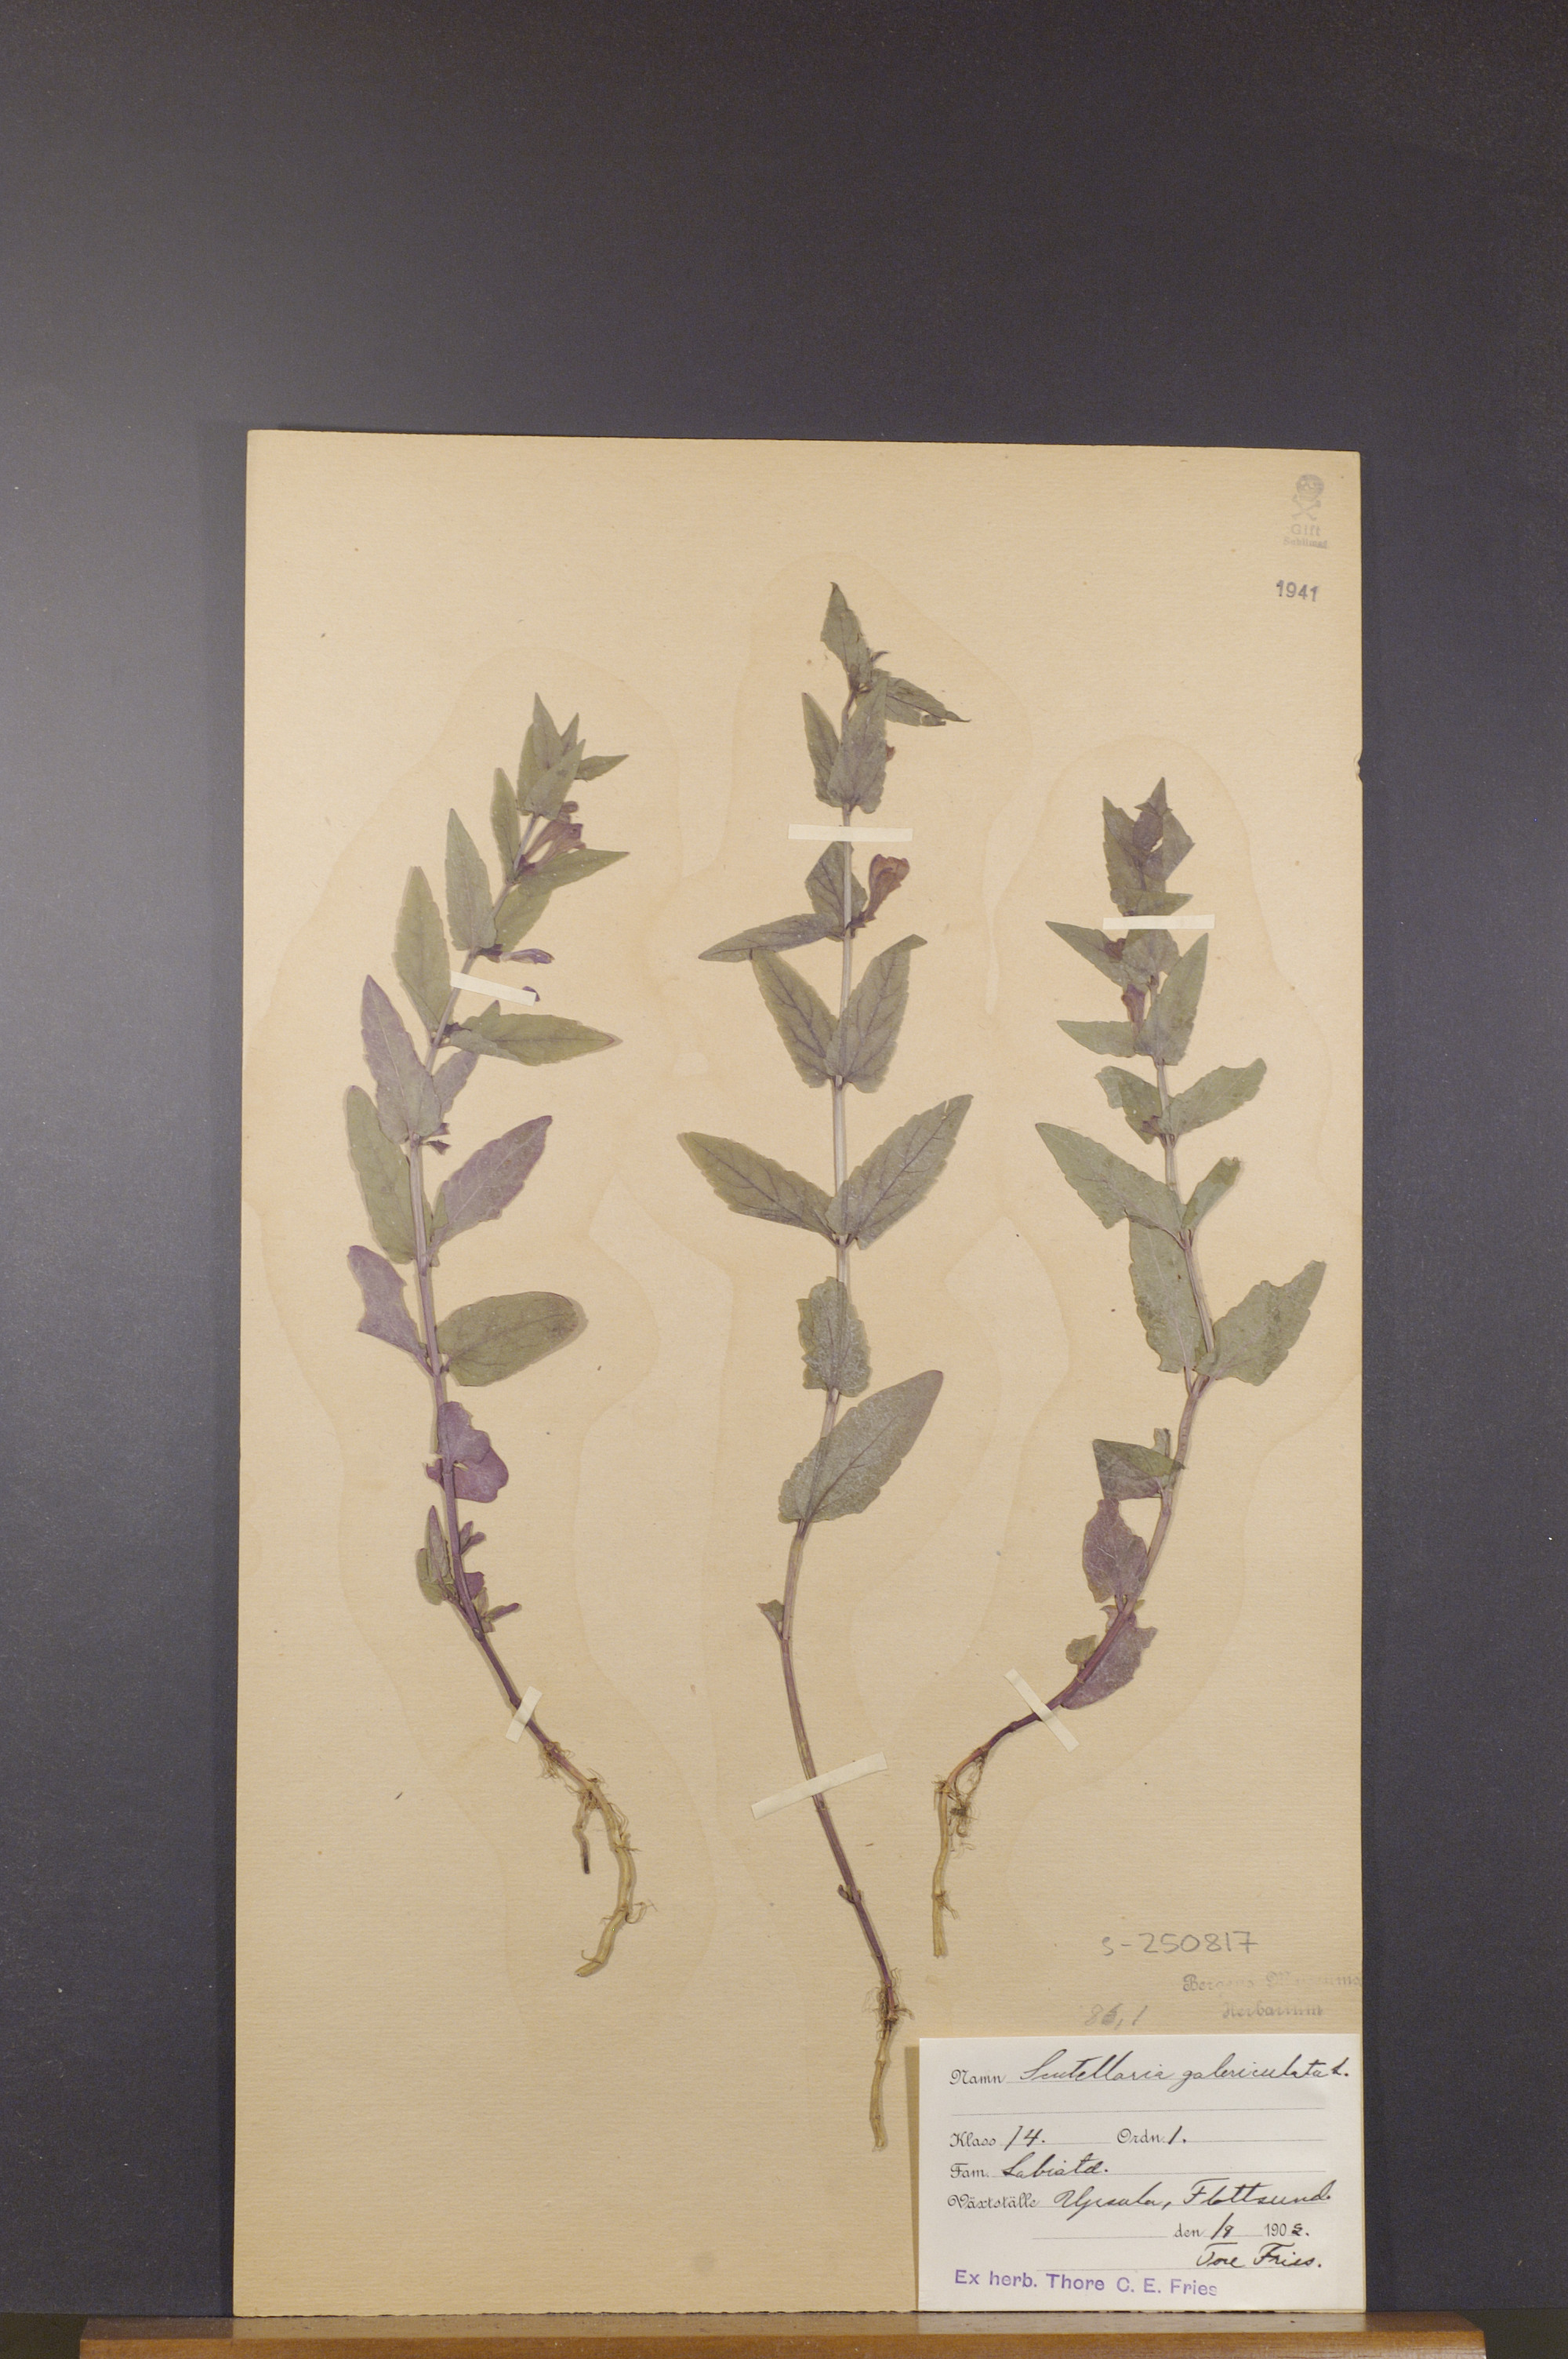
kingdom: Plantae
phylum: Tracheophyta
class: Magnoliopsida
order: Lamiales
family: Lamiaceae
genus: Scutellaria
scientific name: Scutellaria galericulata
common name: Skullcap
